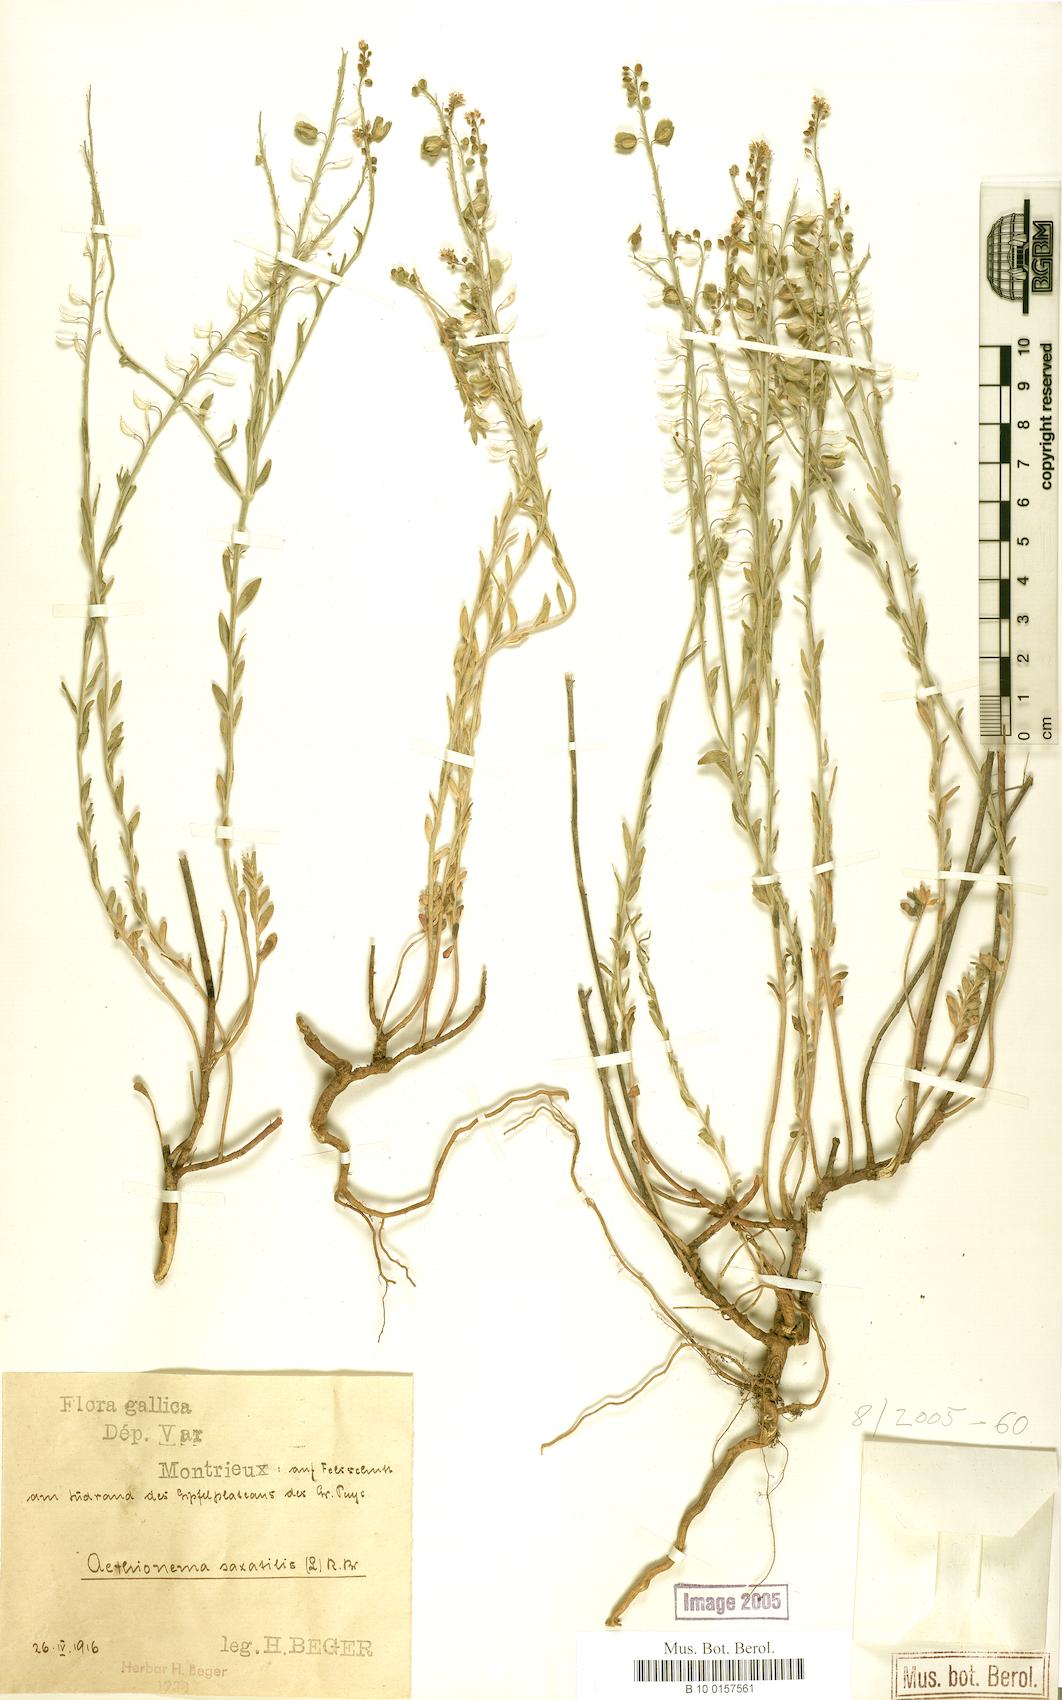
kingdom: Plantae
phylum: Tracheophyta
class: Magnoliopsida
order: Brassicales
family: Brassicaceae
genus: Aethionema
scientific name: Aethionema saxatile
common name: Burnt candytuft
